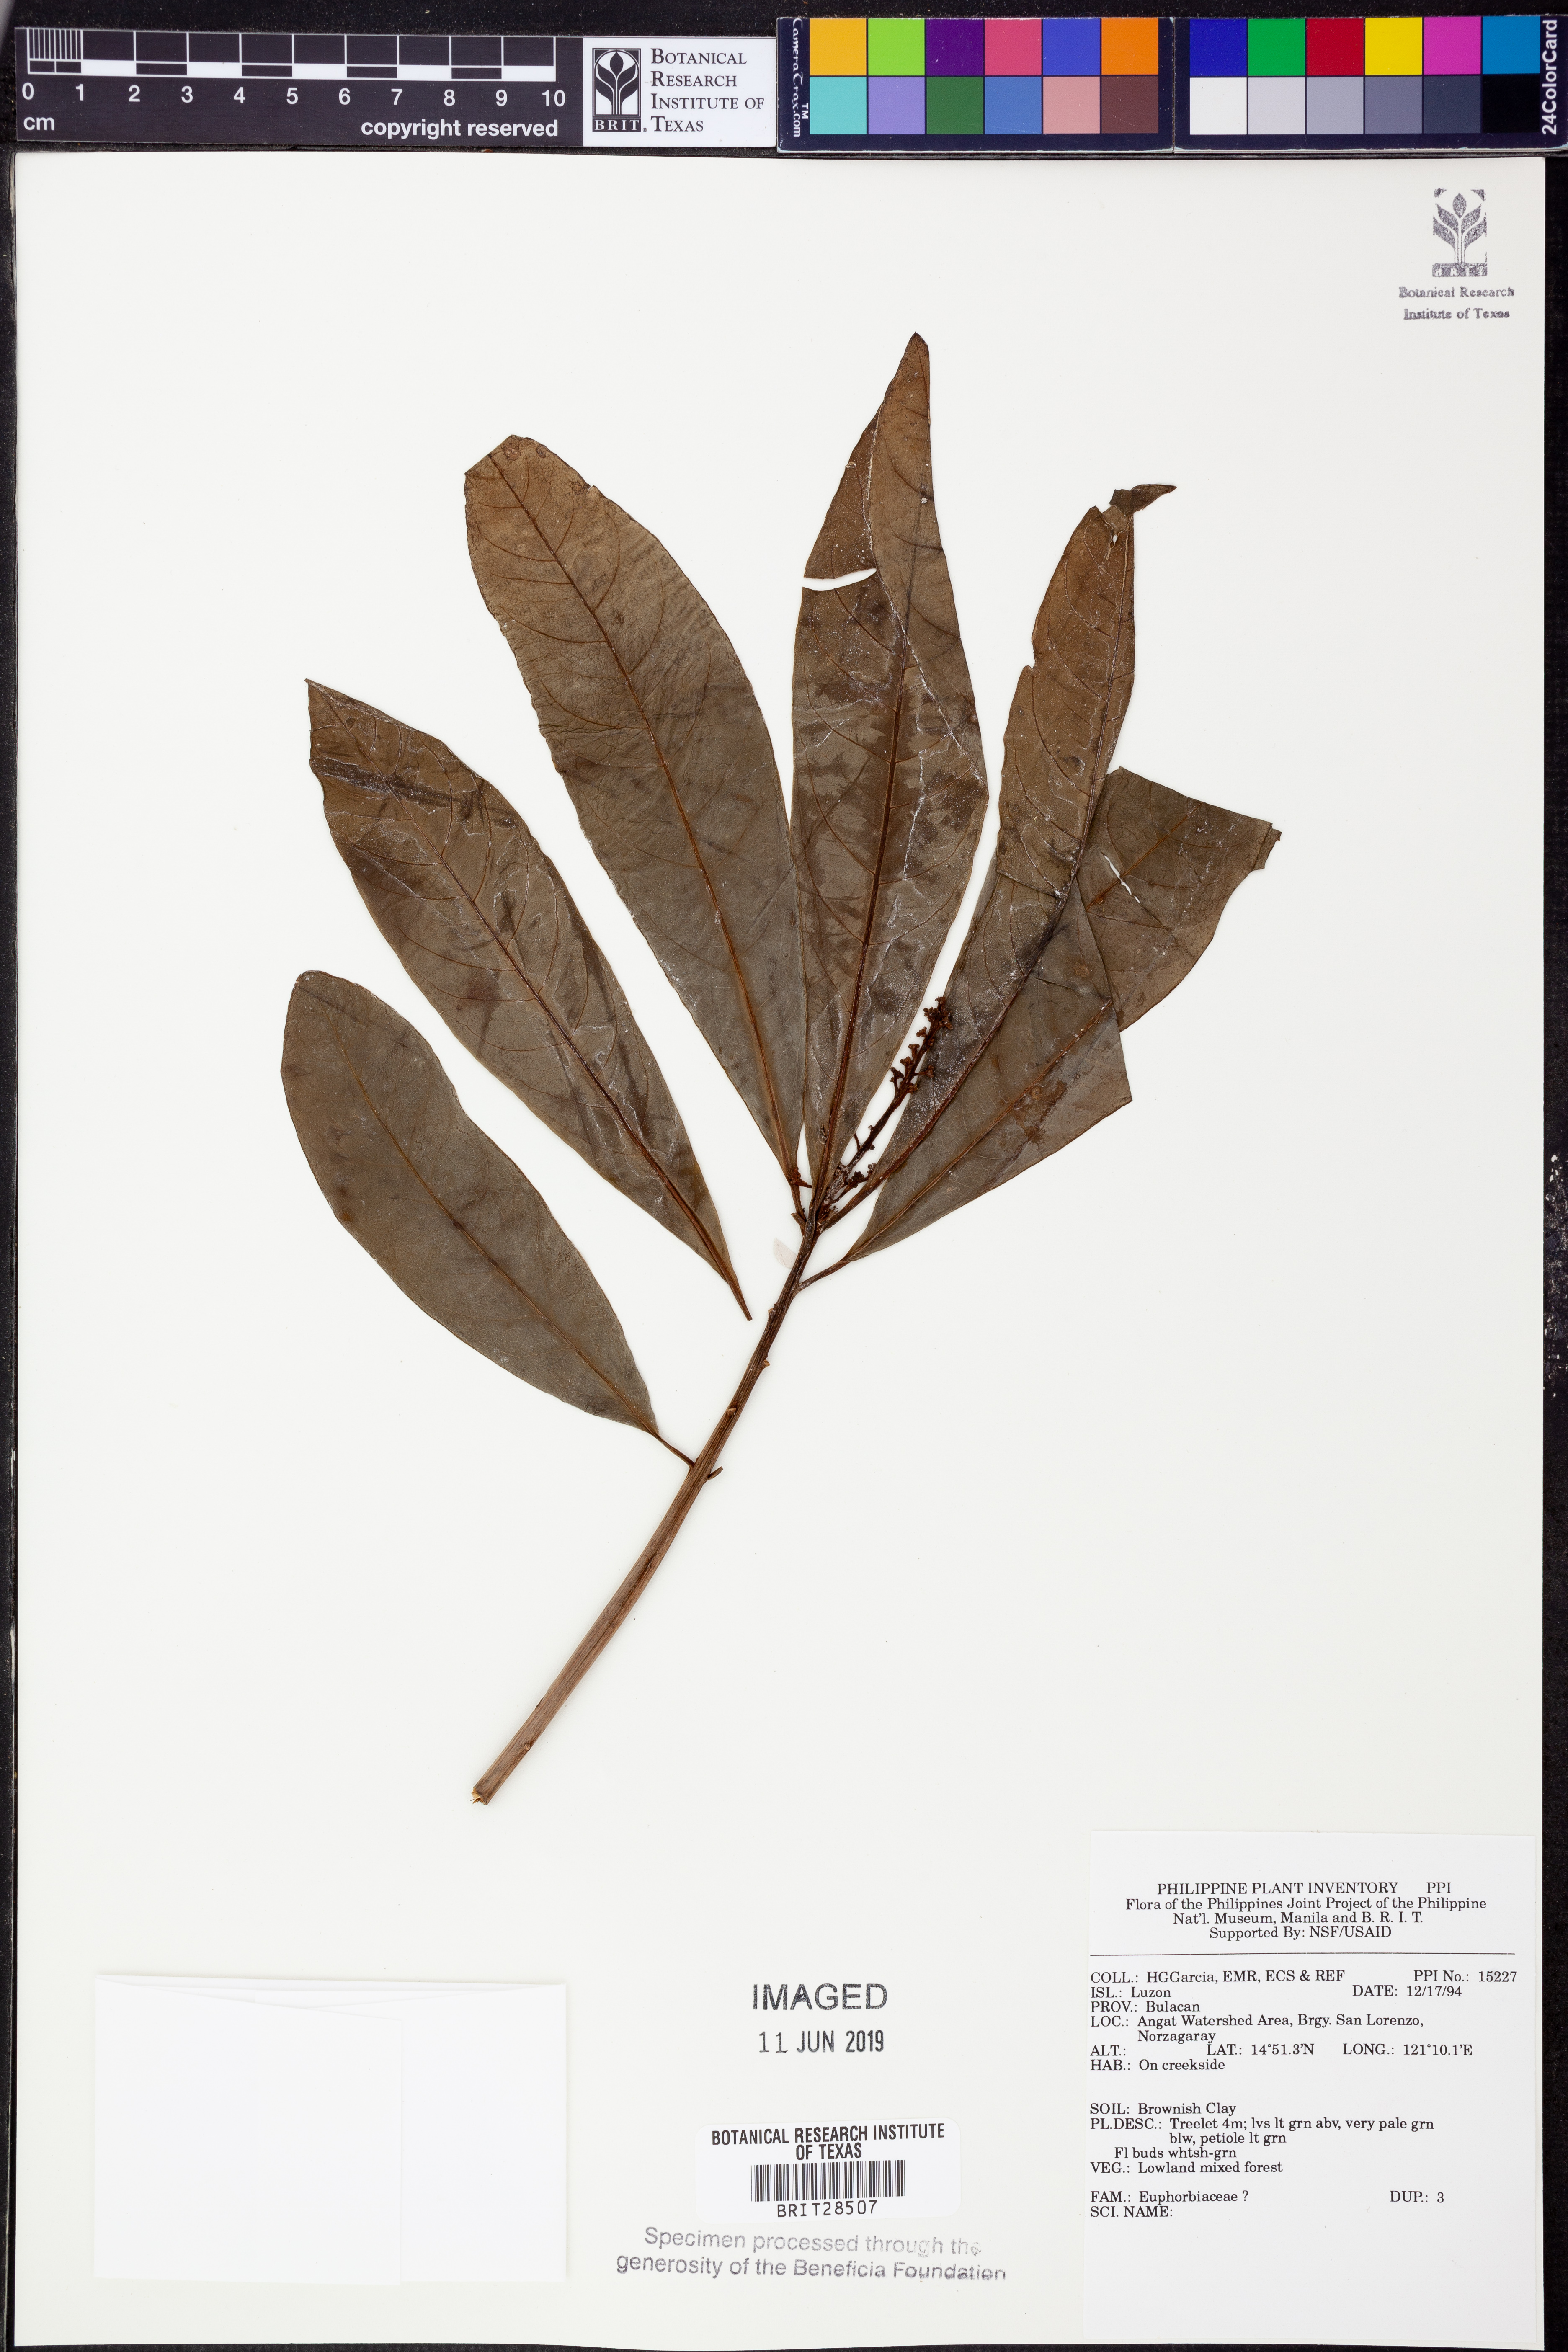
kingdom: Plantae
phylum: Tracheophyta
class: Magnoliopsida
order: Malpighiales
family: Euphorbiaceae
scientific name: Euphorbiaceae
